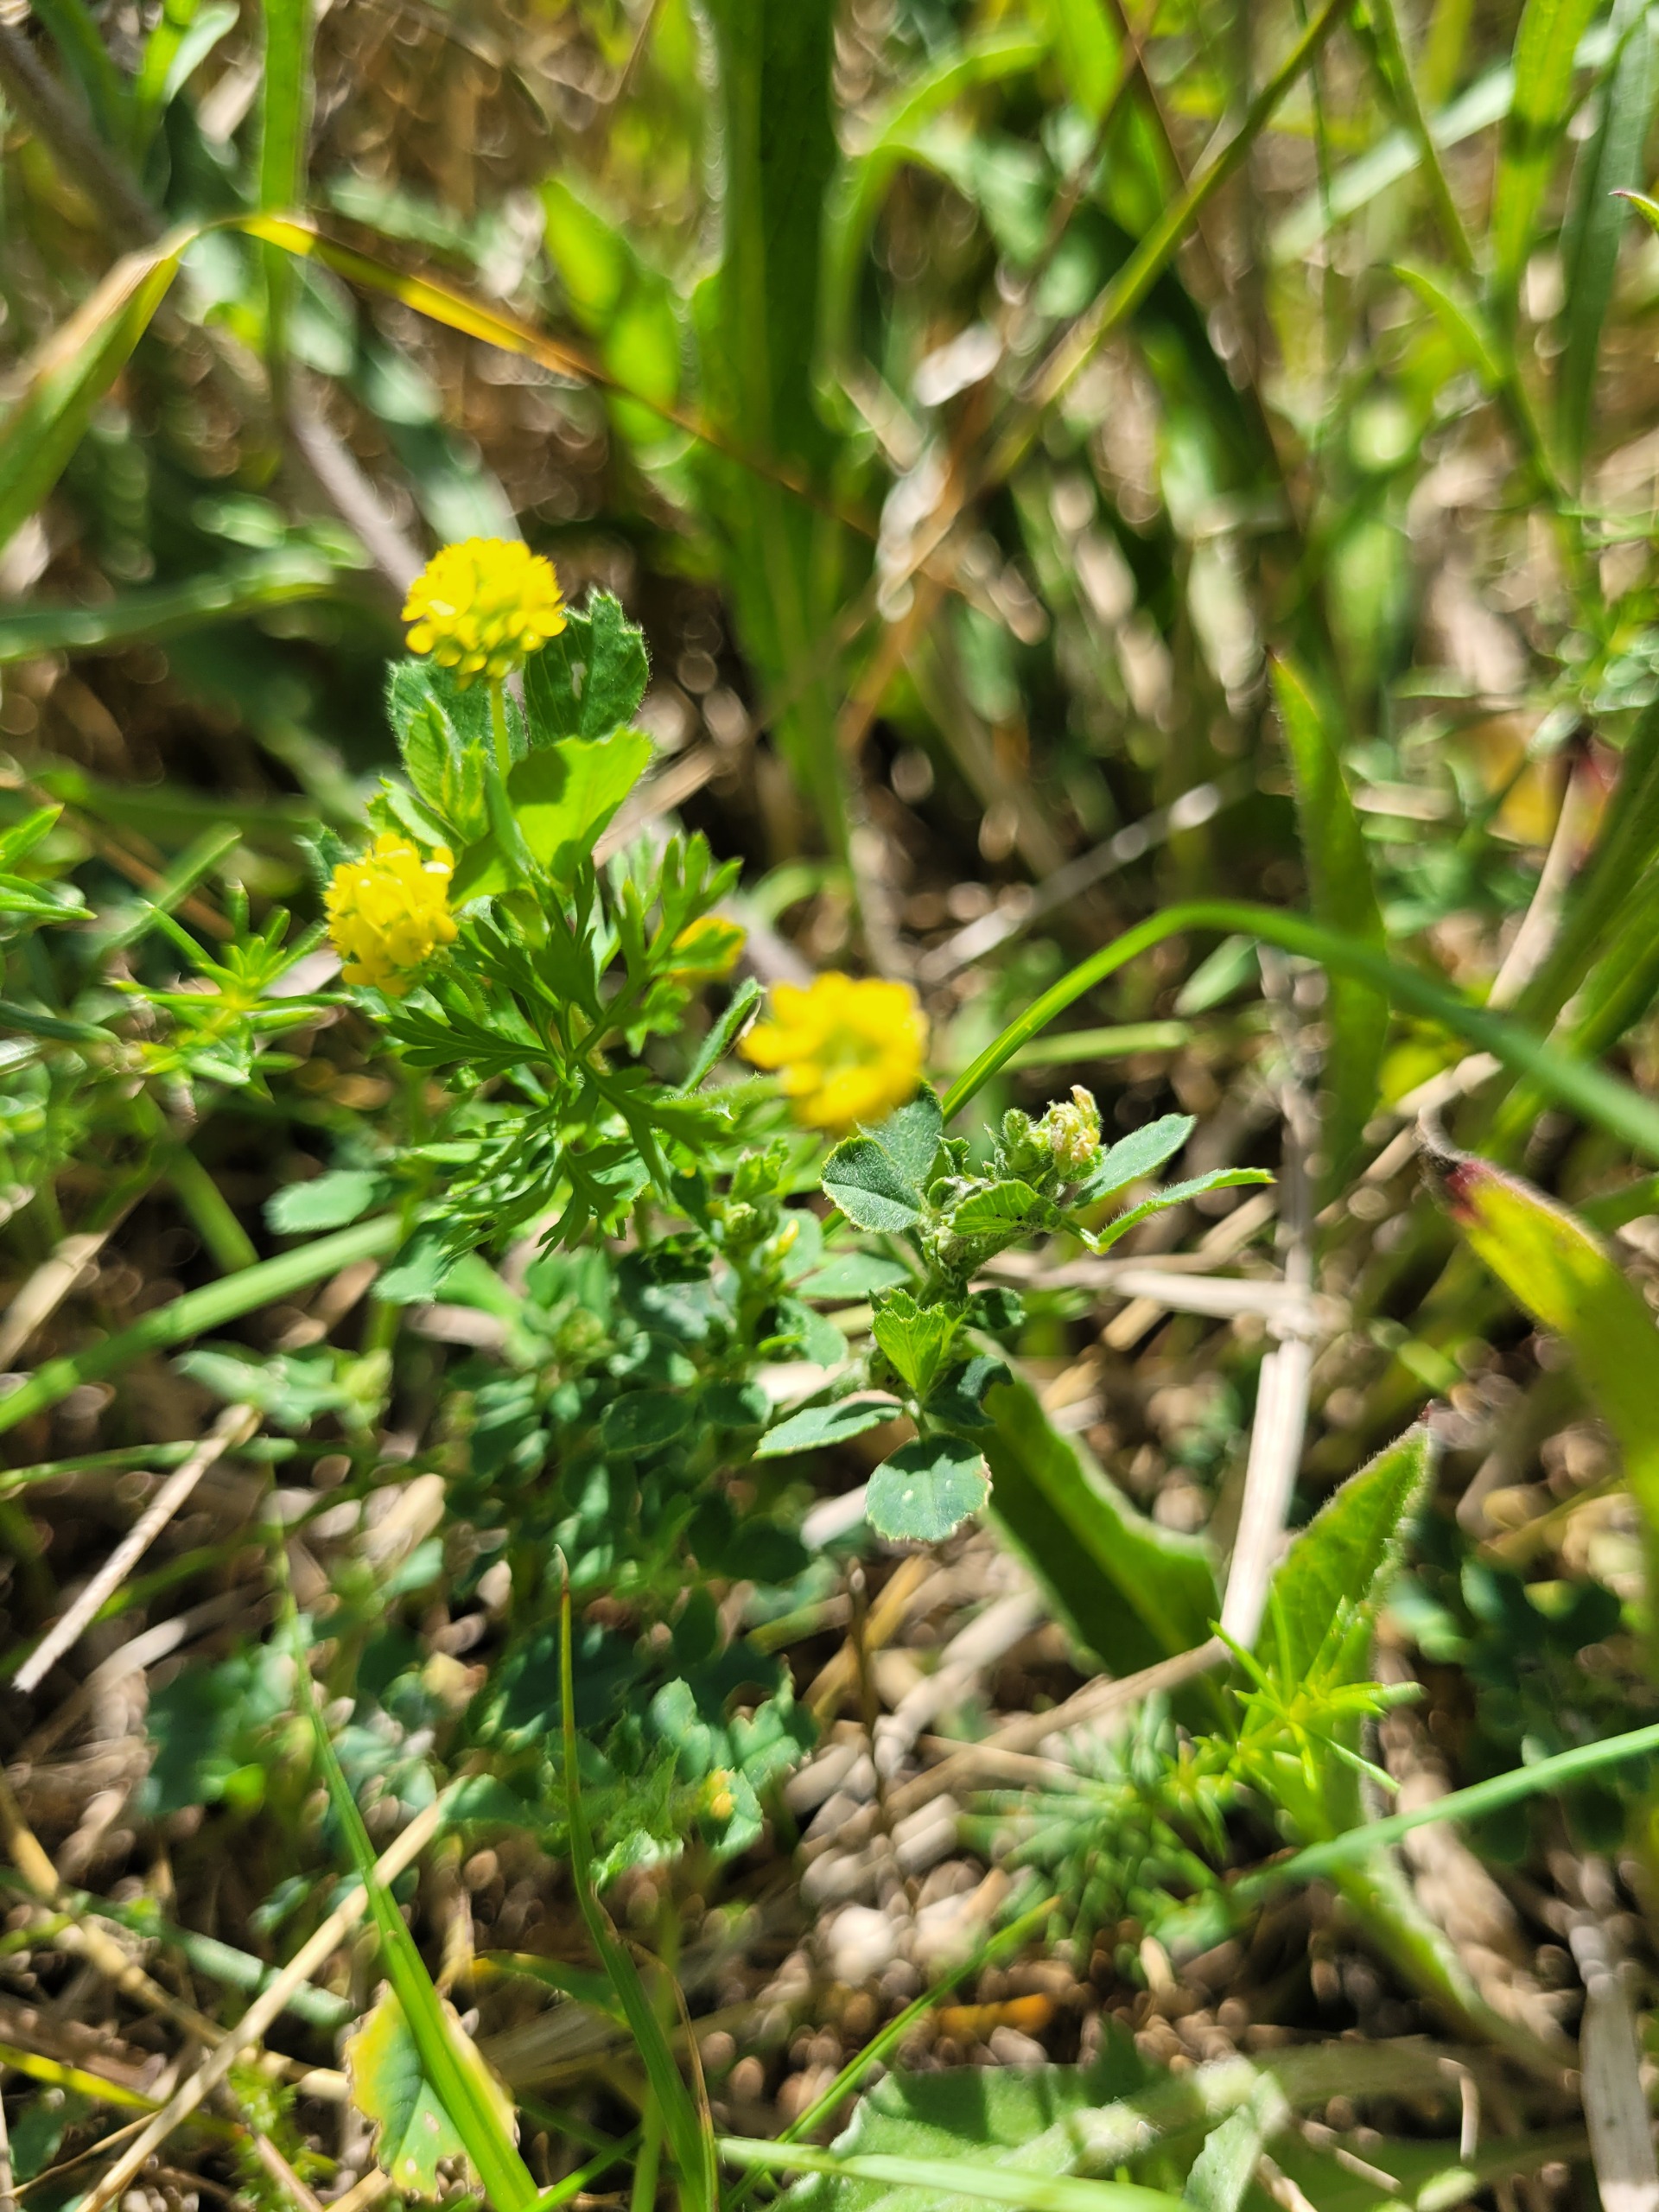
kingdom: Plantae
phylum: Tracheophyta
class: Magnoliopsida
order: Fabales
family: Fabaceae
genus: Medicago
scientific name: Medicago lupulina
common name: Humle-sneglebælg
